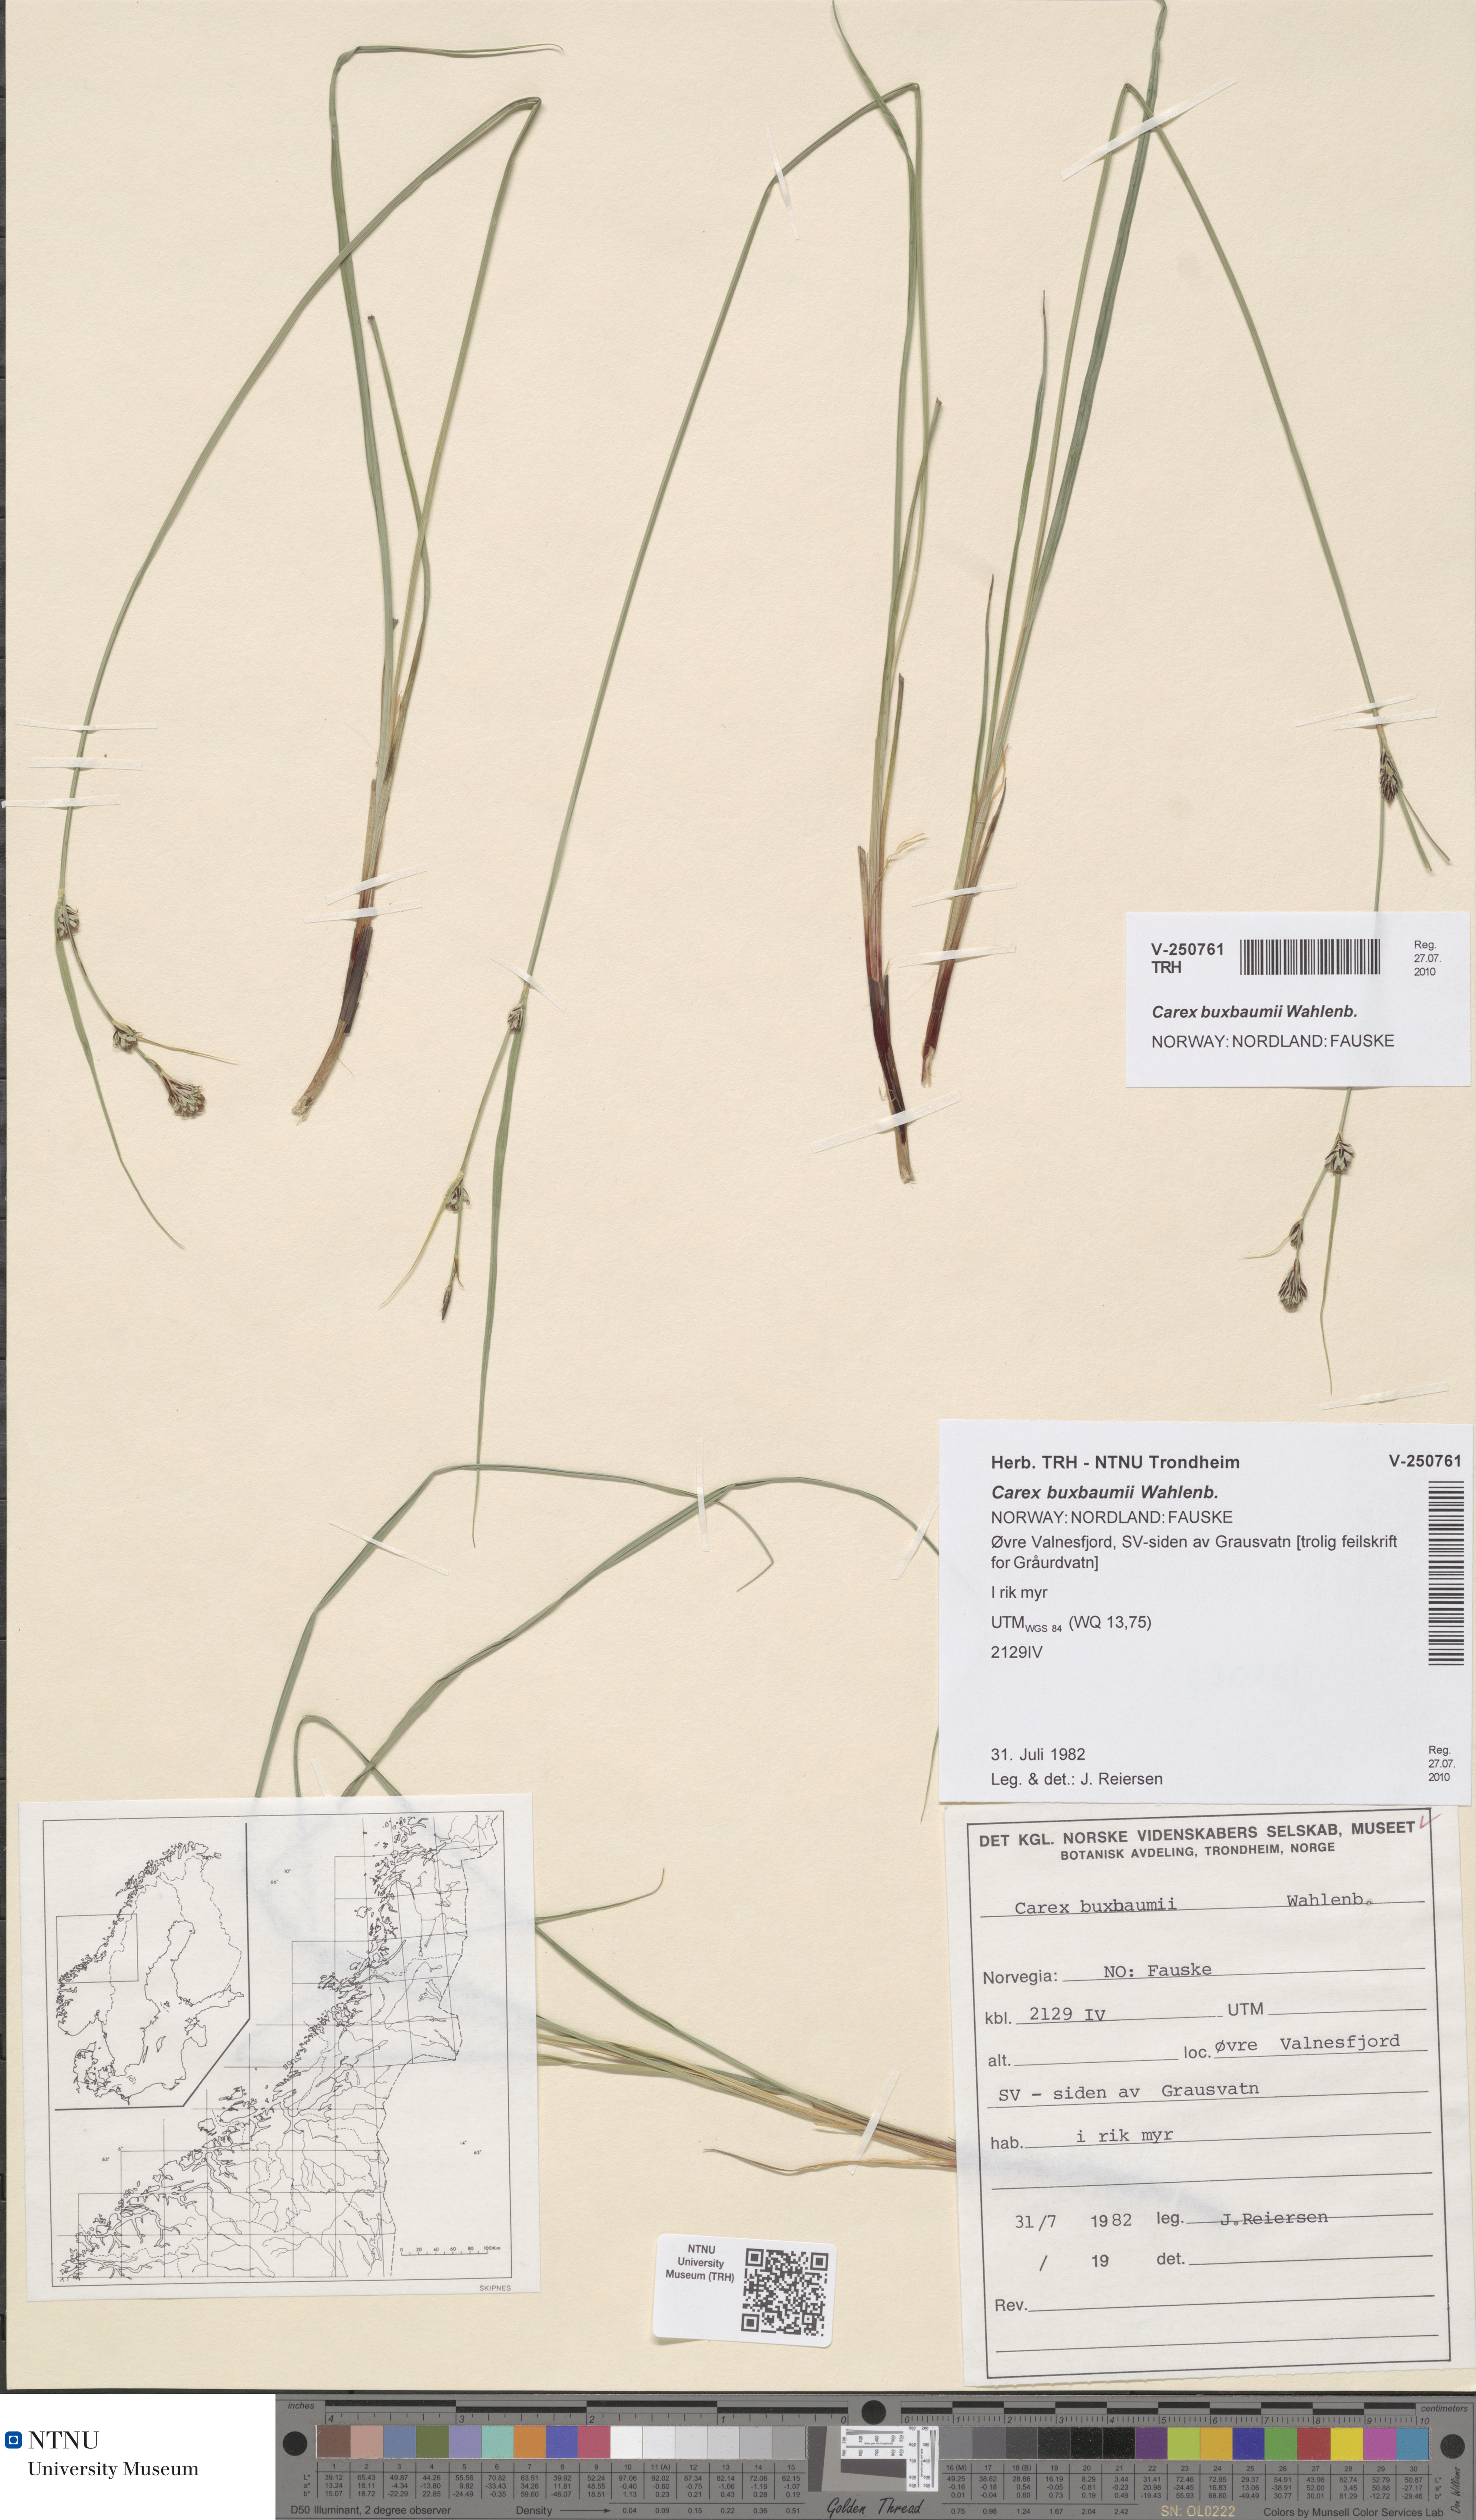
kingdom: Plantae
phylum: Tracheophyta
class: Liliopsida
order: Poales
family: Cyperaceae
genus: Carex
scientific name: Carex buxbaumii
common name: Club sedge
